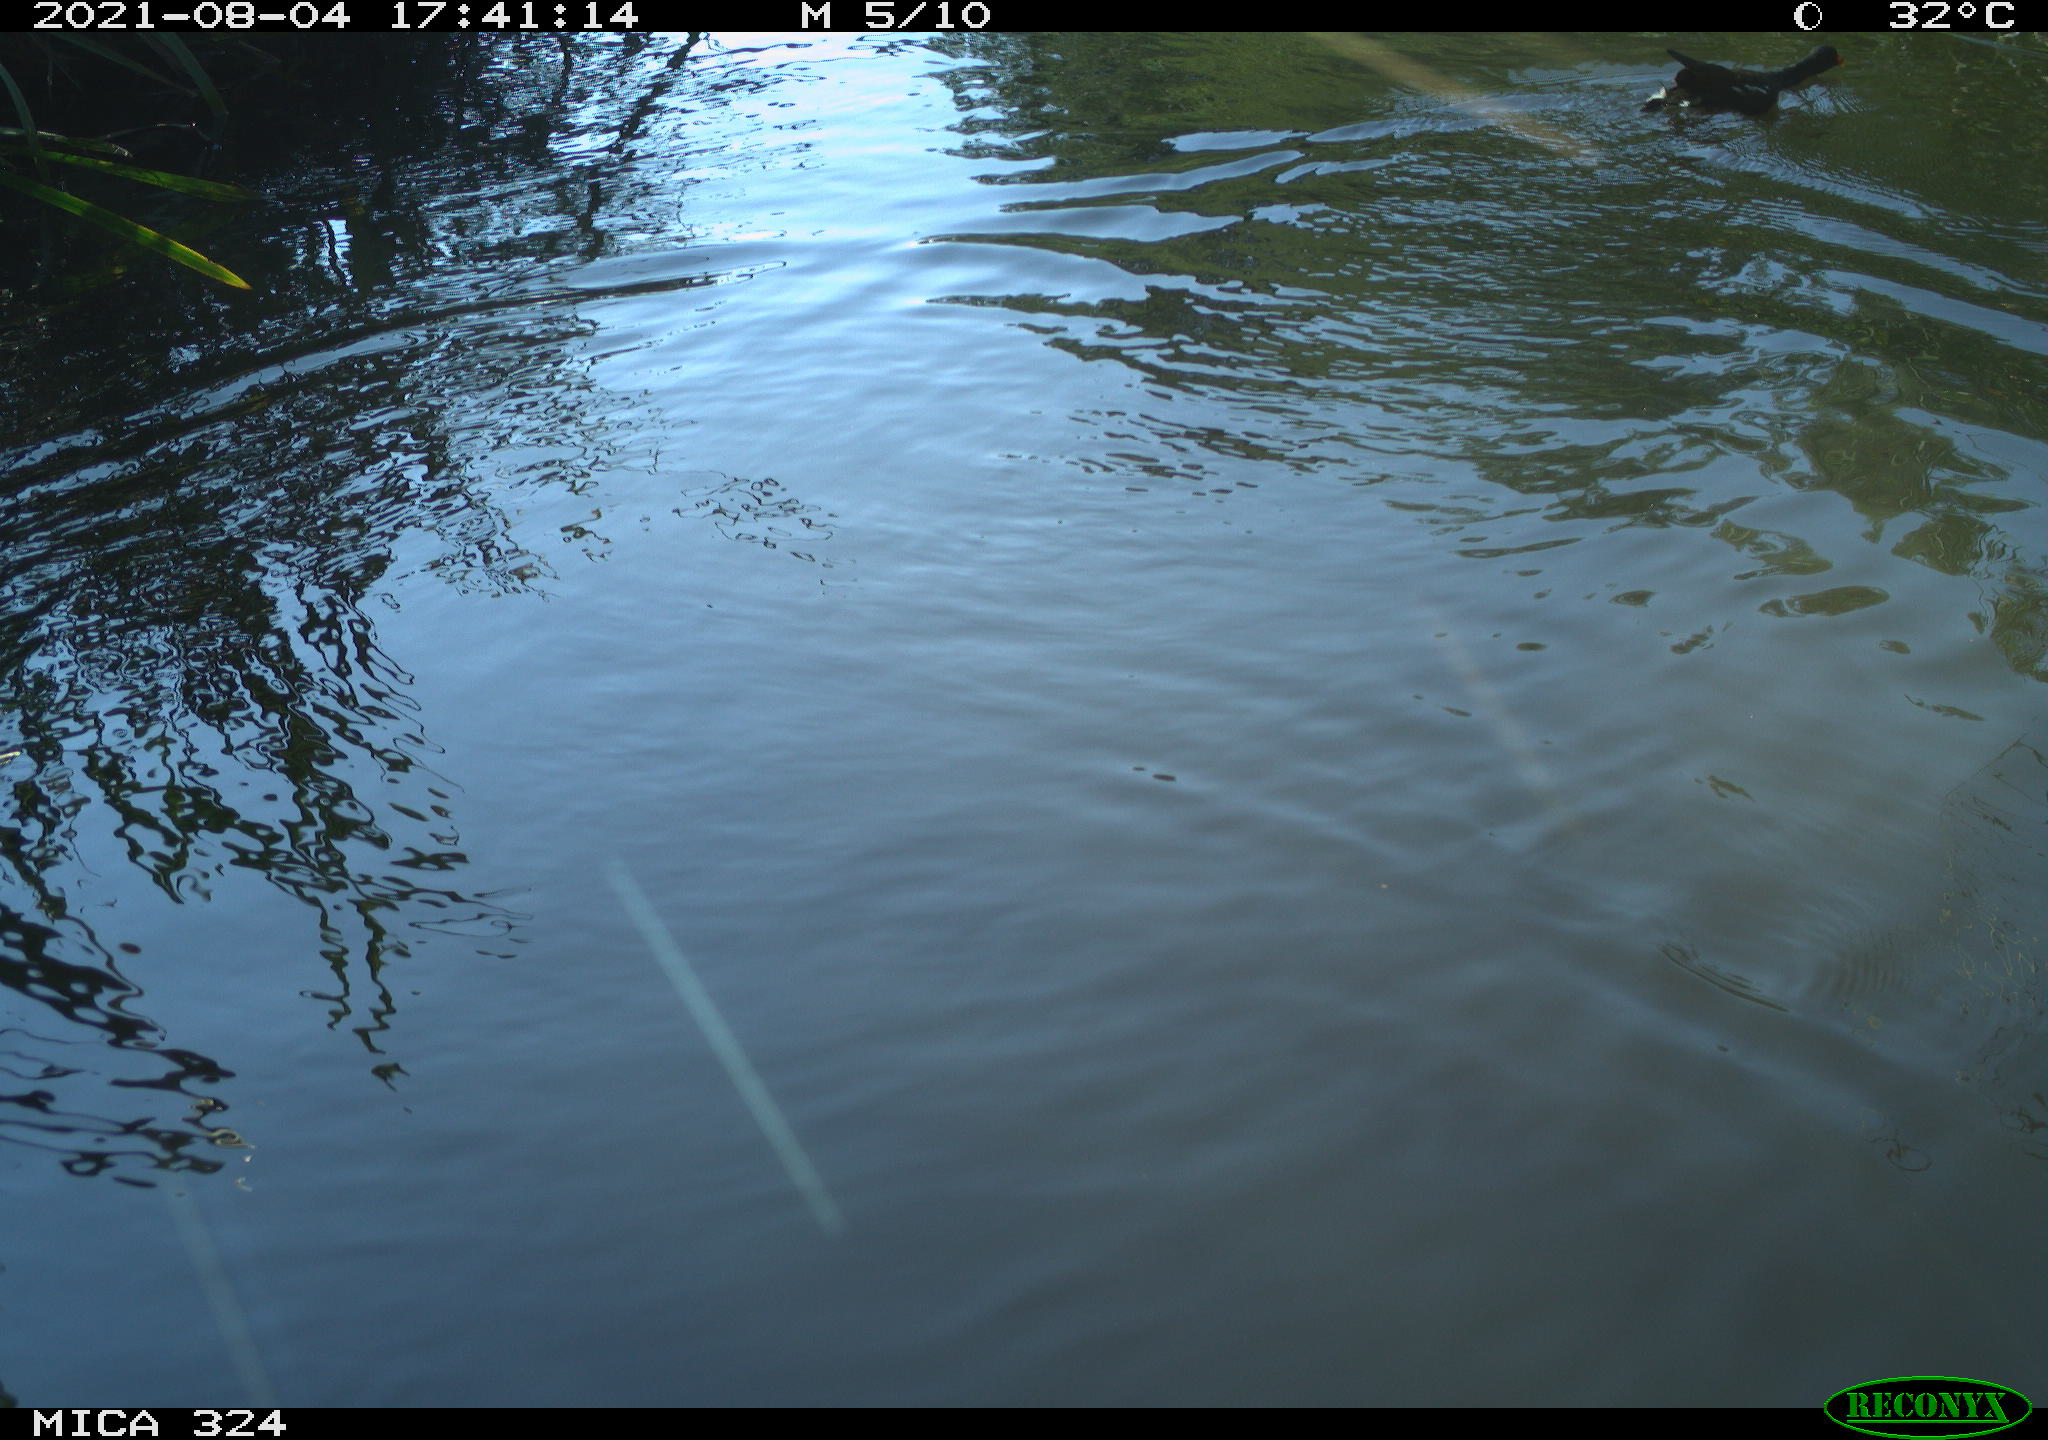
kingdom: Animalia
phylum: Chordata
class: Aves
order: Gruiformes
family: Rallidae
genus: Gallinula
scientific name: Gallinula chloropus
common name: Common moorhen
